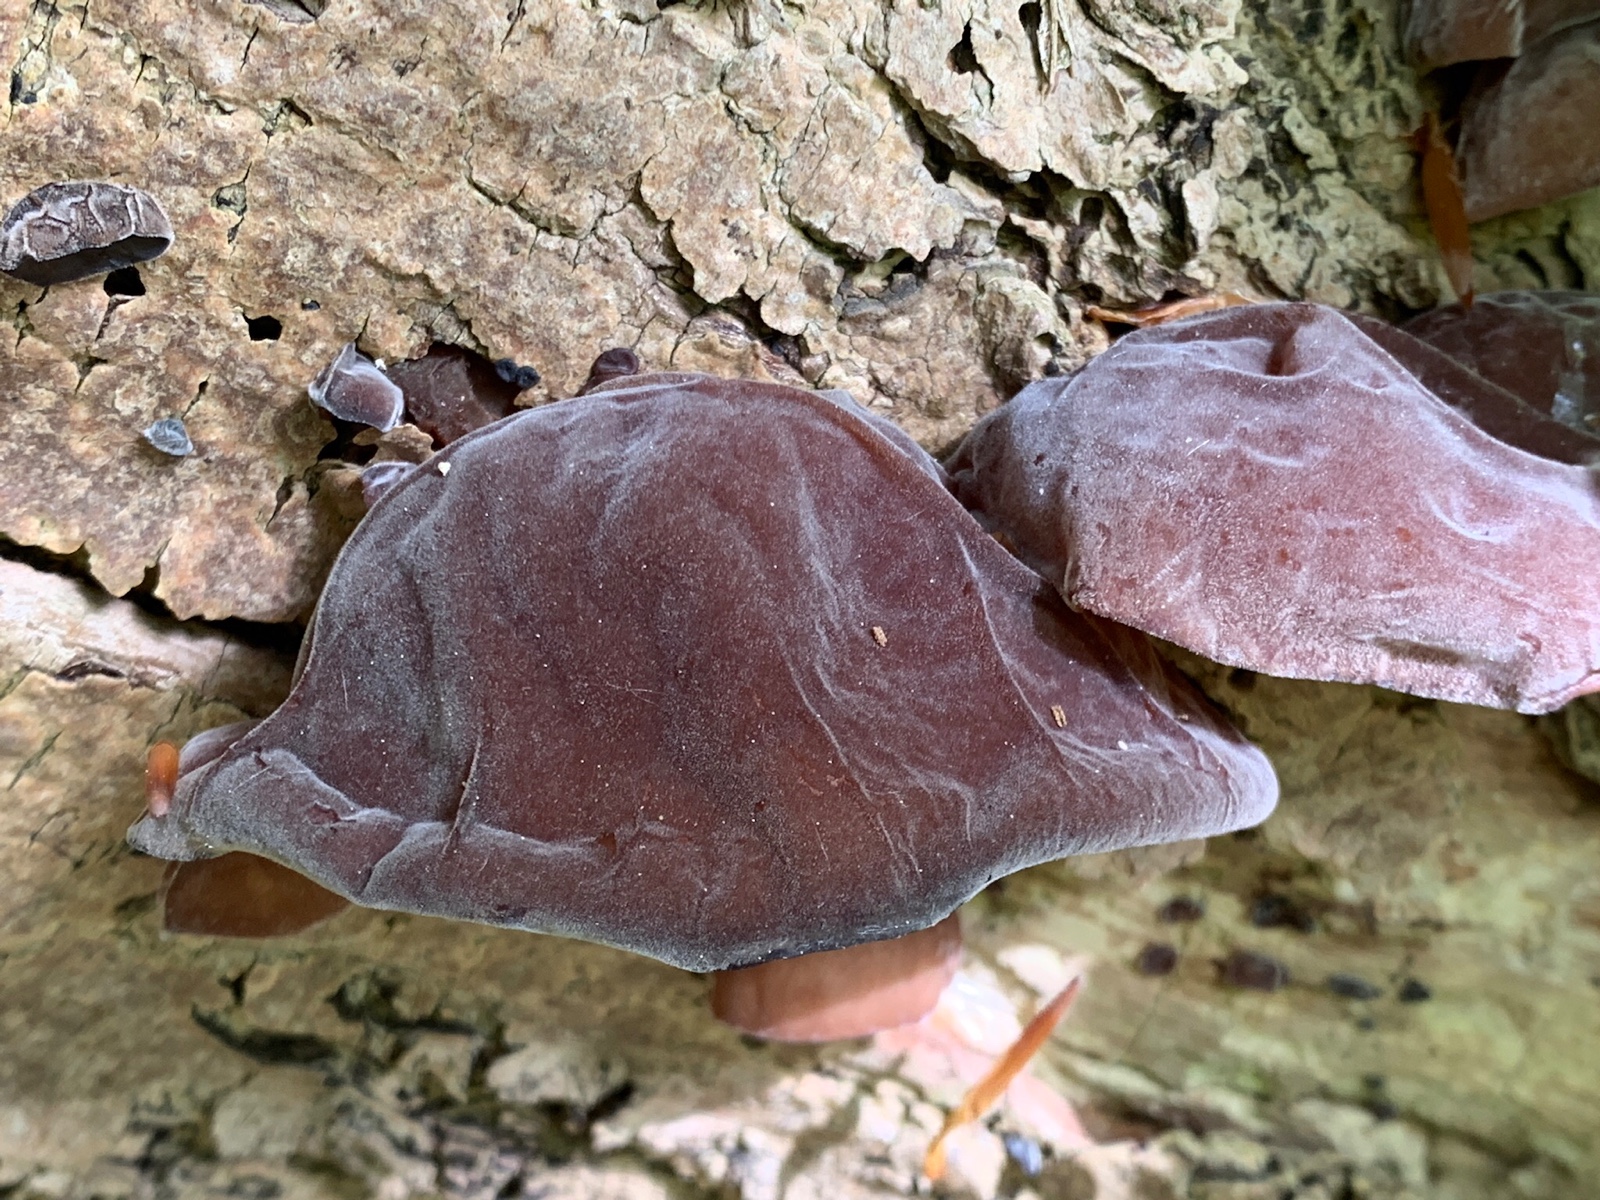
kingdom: Fungi
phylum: Basidiomycota
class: Agaricomycetes
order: Auriculariales
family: Auriculariaceae
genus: Auricularia
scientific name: Auricularia auricula-judae
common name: almindelig judasøre
